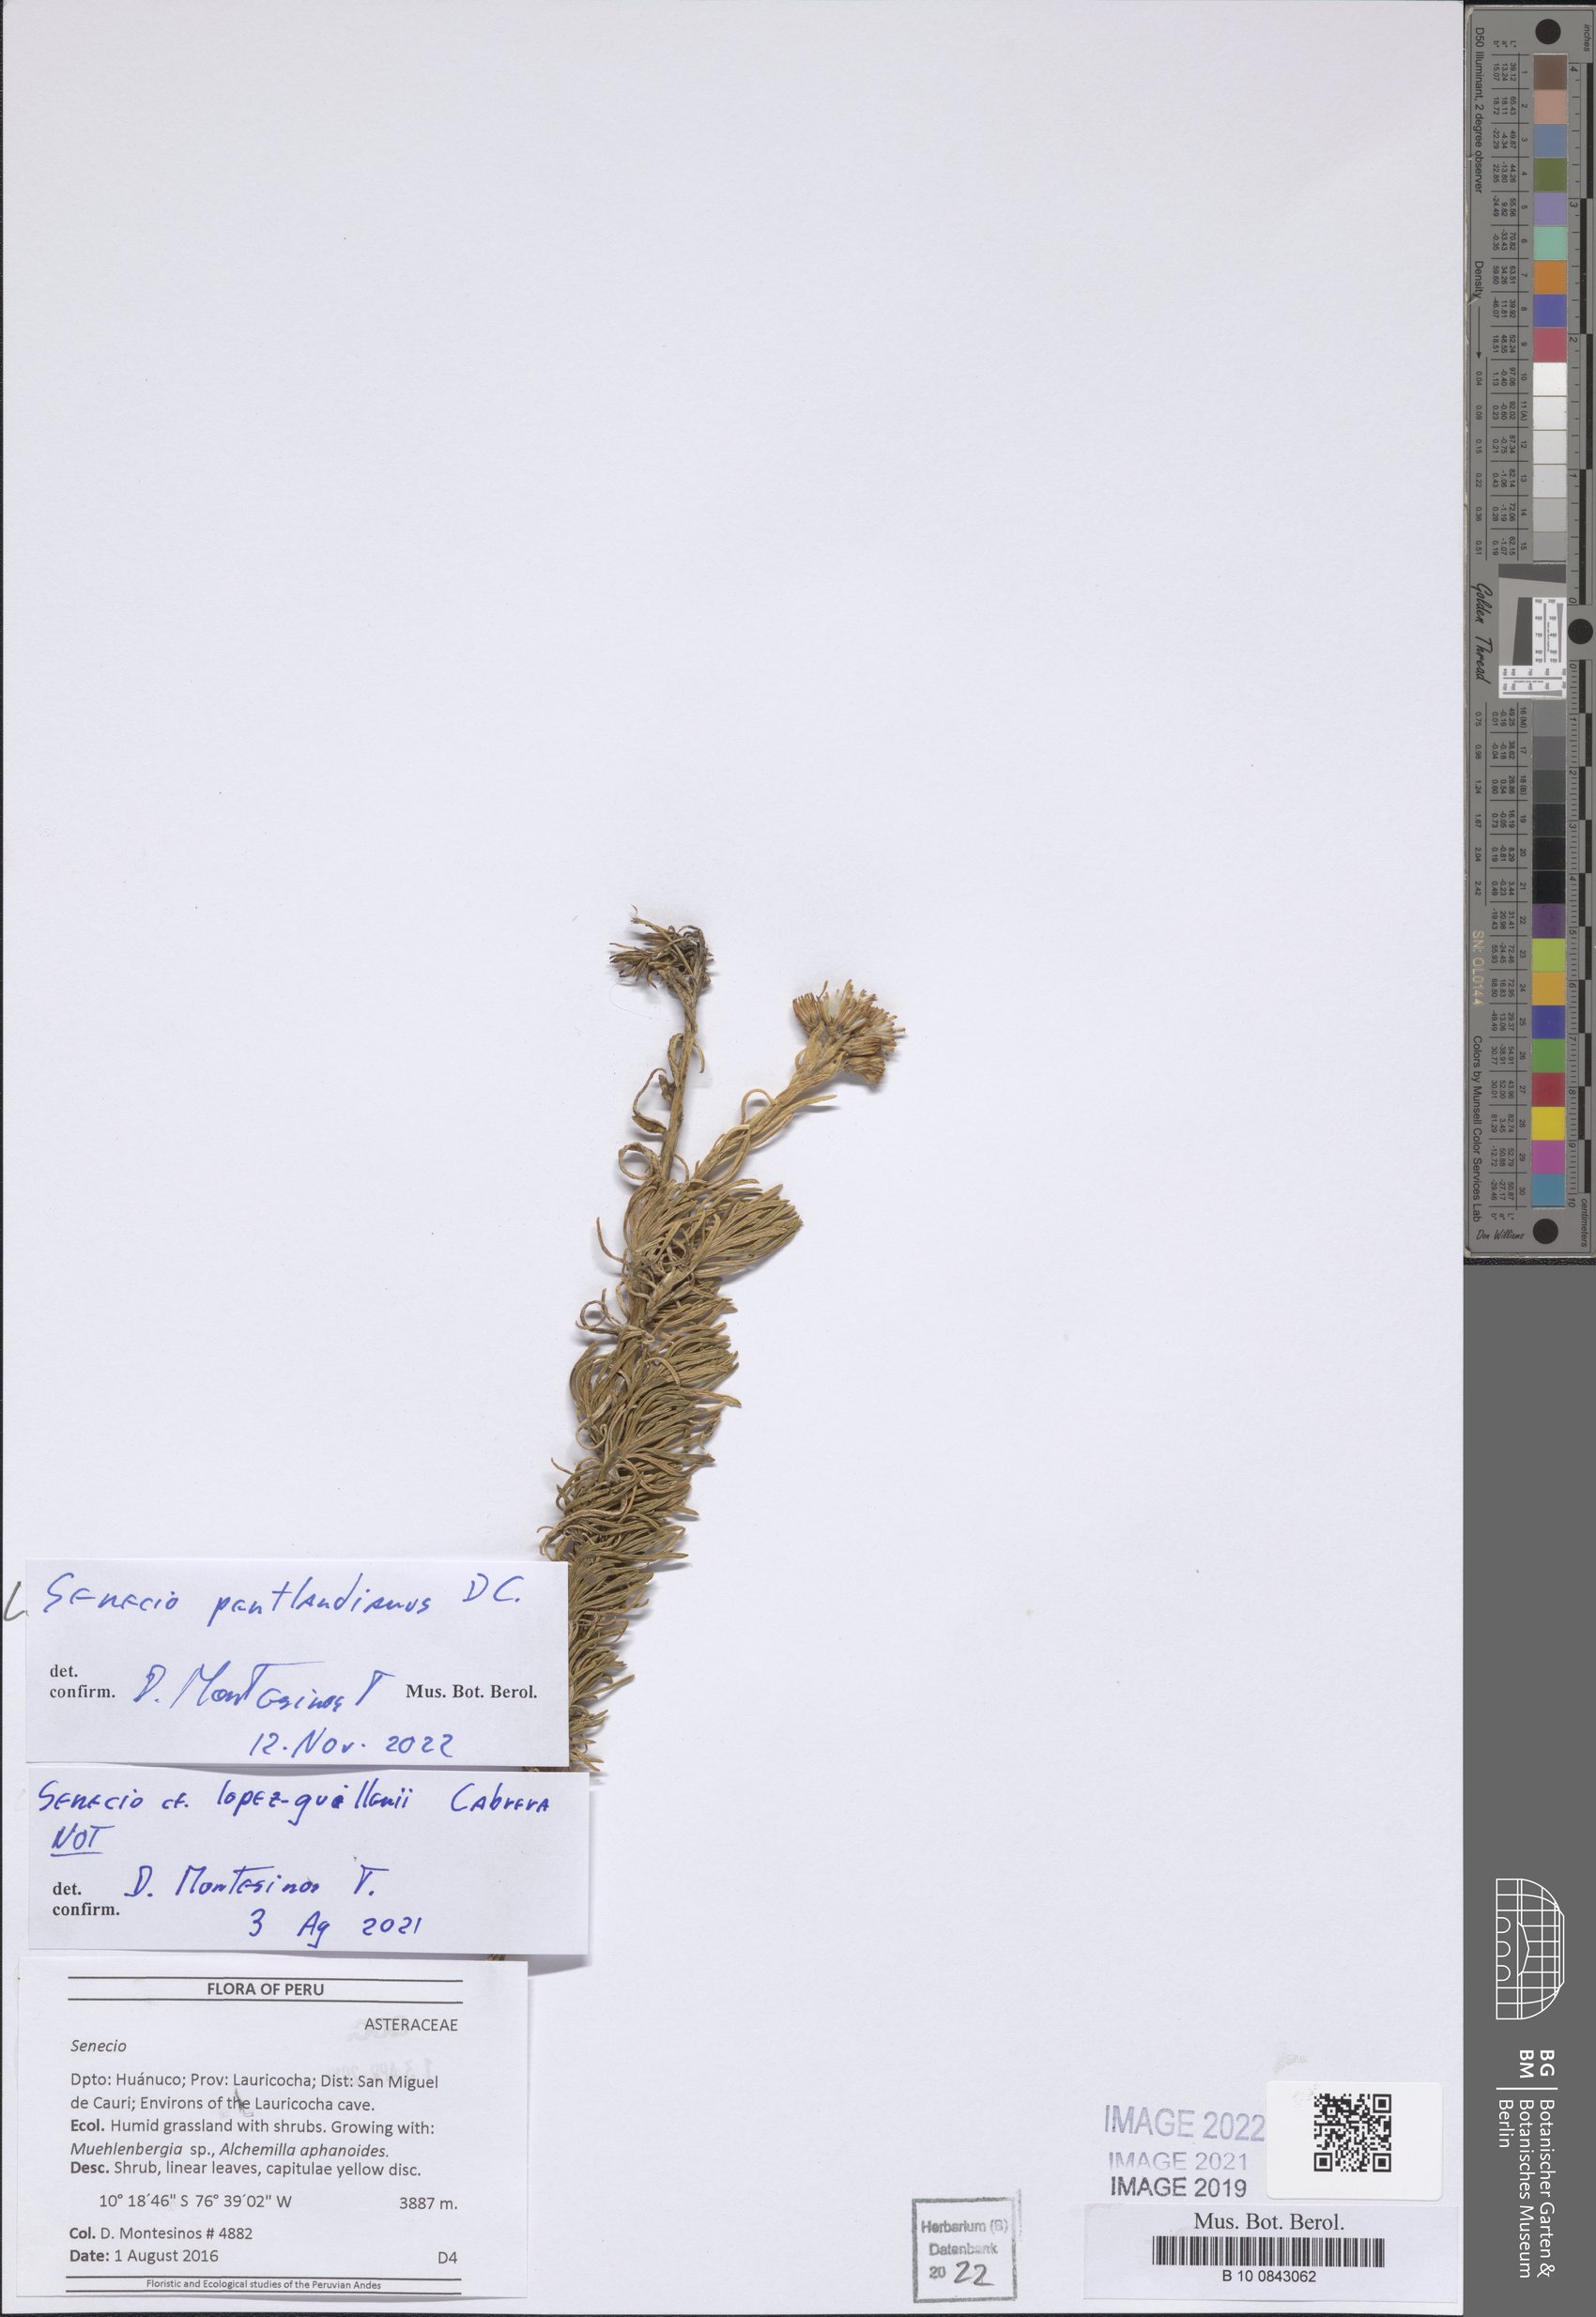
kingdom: Plantae
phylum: Tracheophyta
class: Magnoliopsida
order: Asterales
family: Asteraceae
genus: Senecio
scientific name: Senecio pentlandianus
